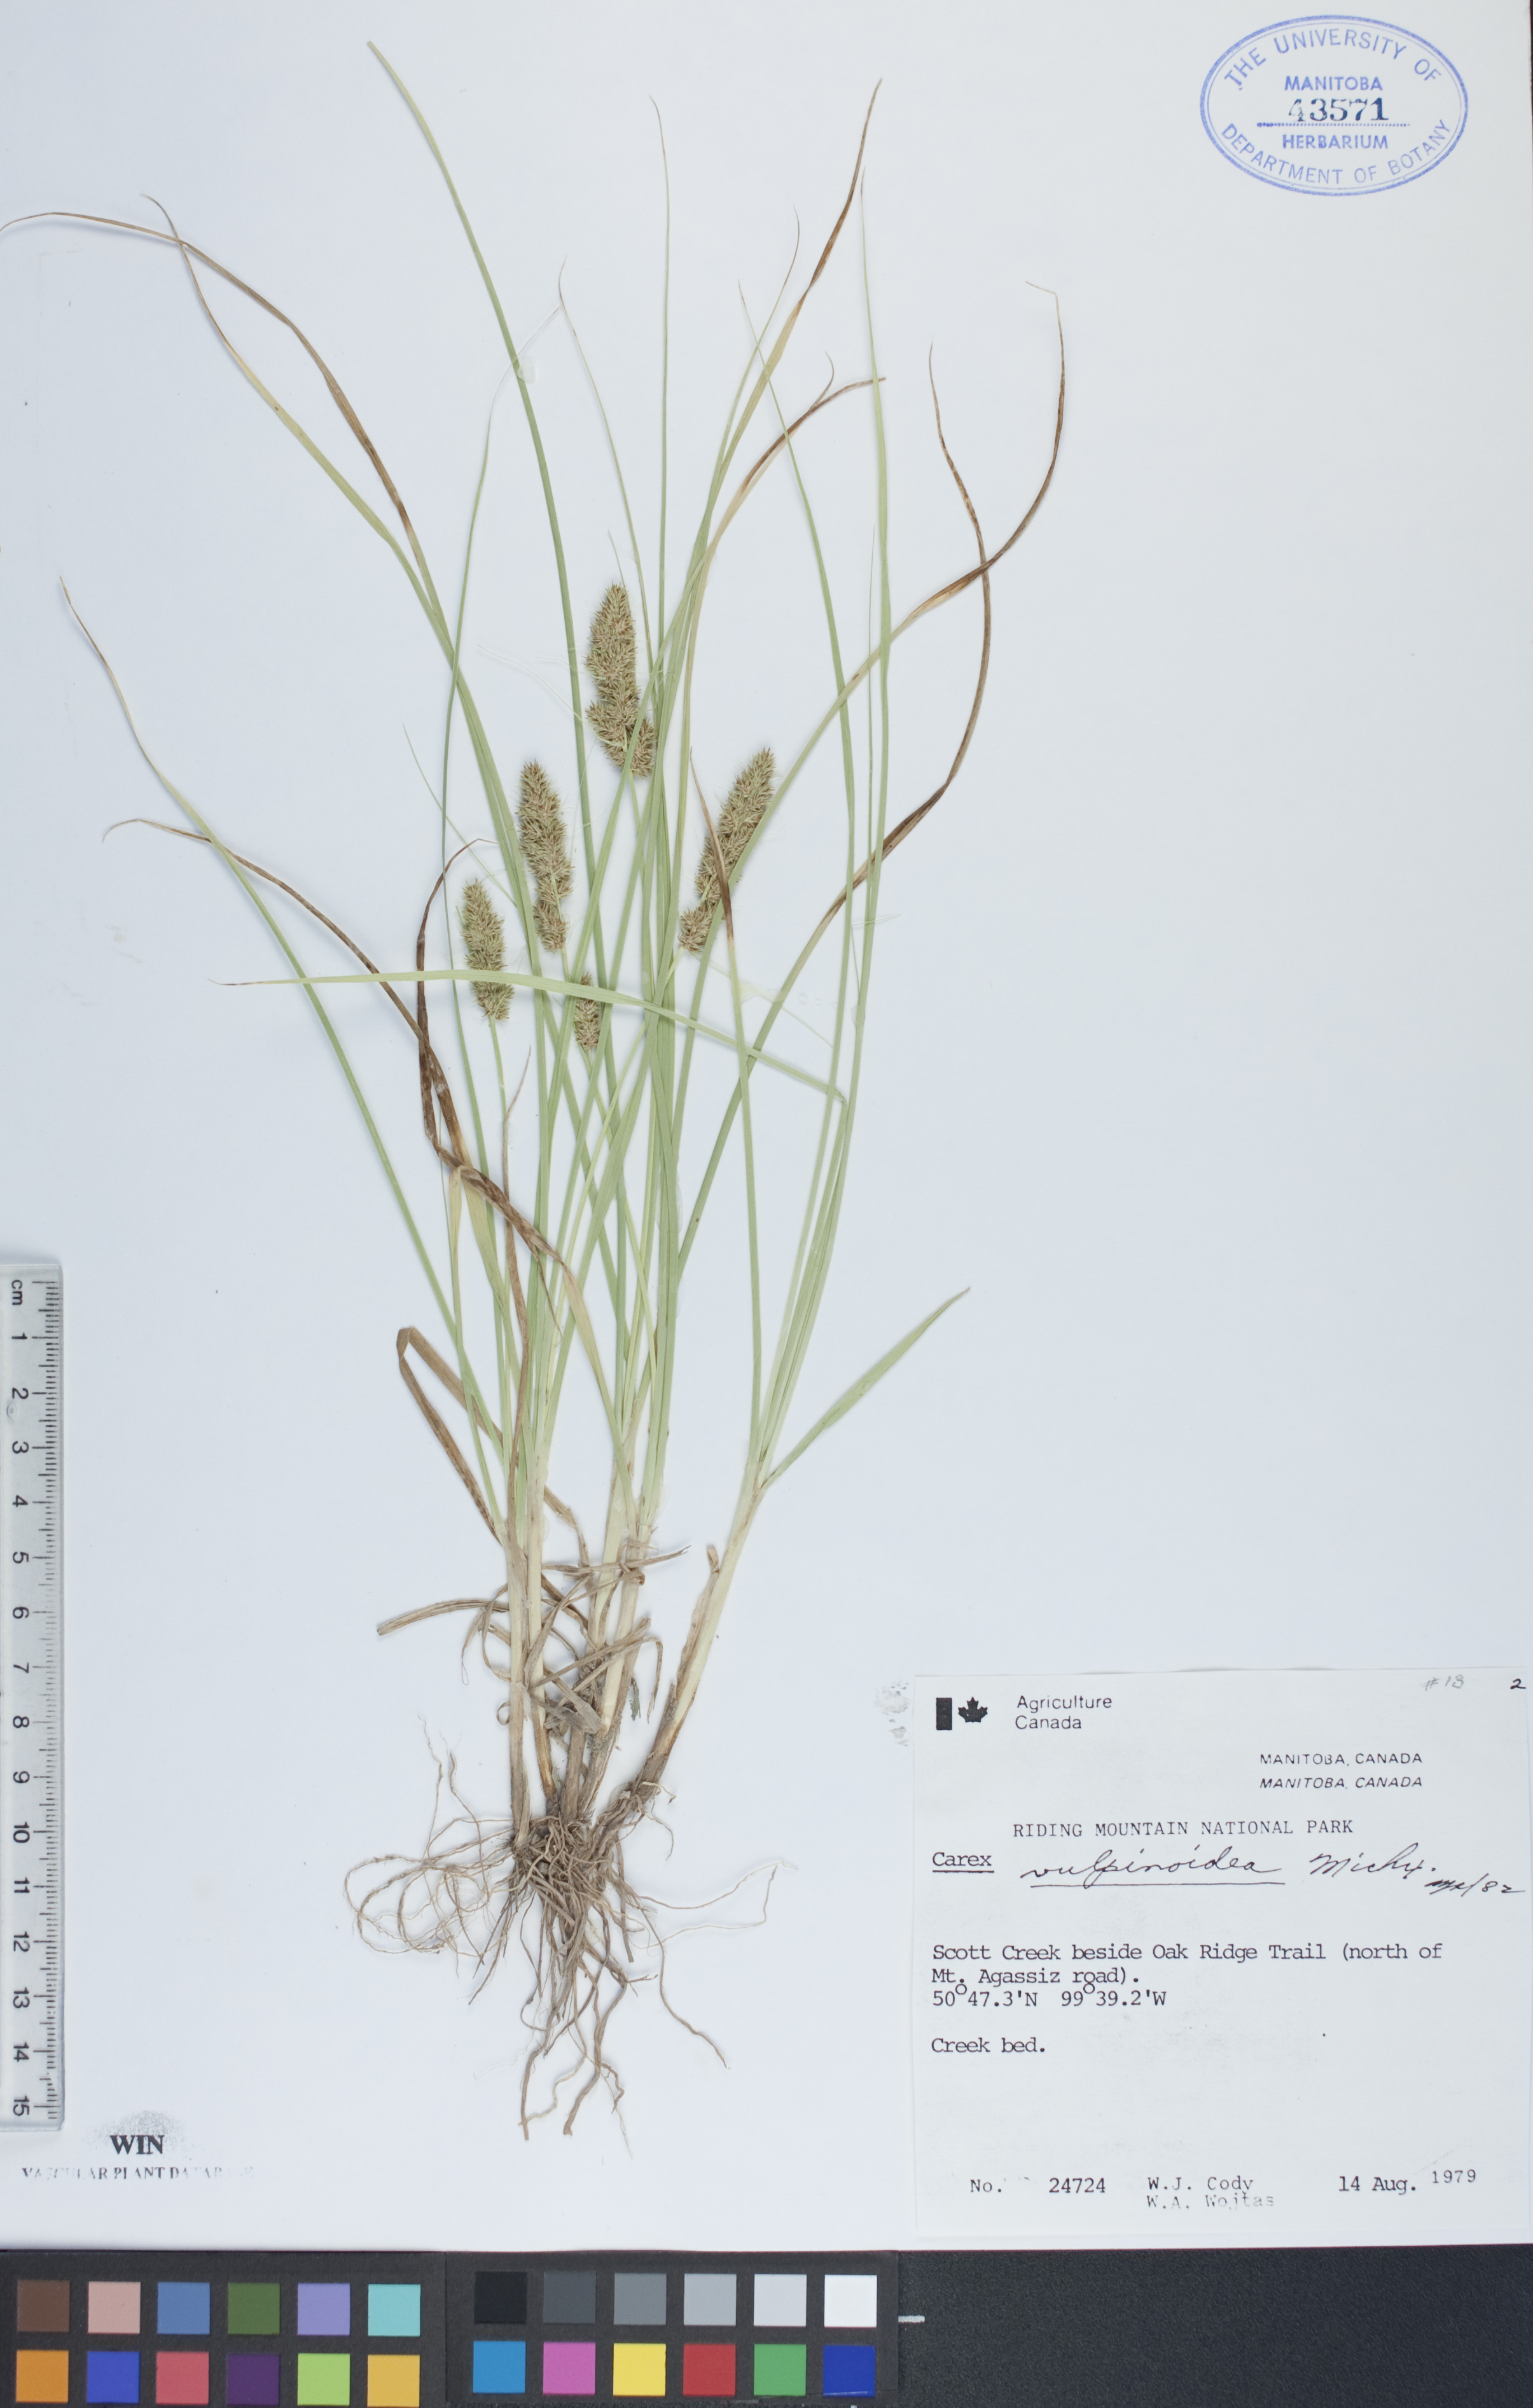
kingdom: Plantae
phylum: Tracheophyta
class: Liliopsida
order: Poales
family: Cyperaceae
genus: Carex
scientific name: Carex vulpinoidea
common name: American fox-sedge
